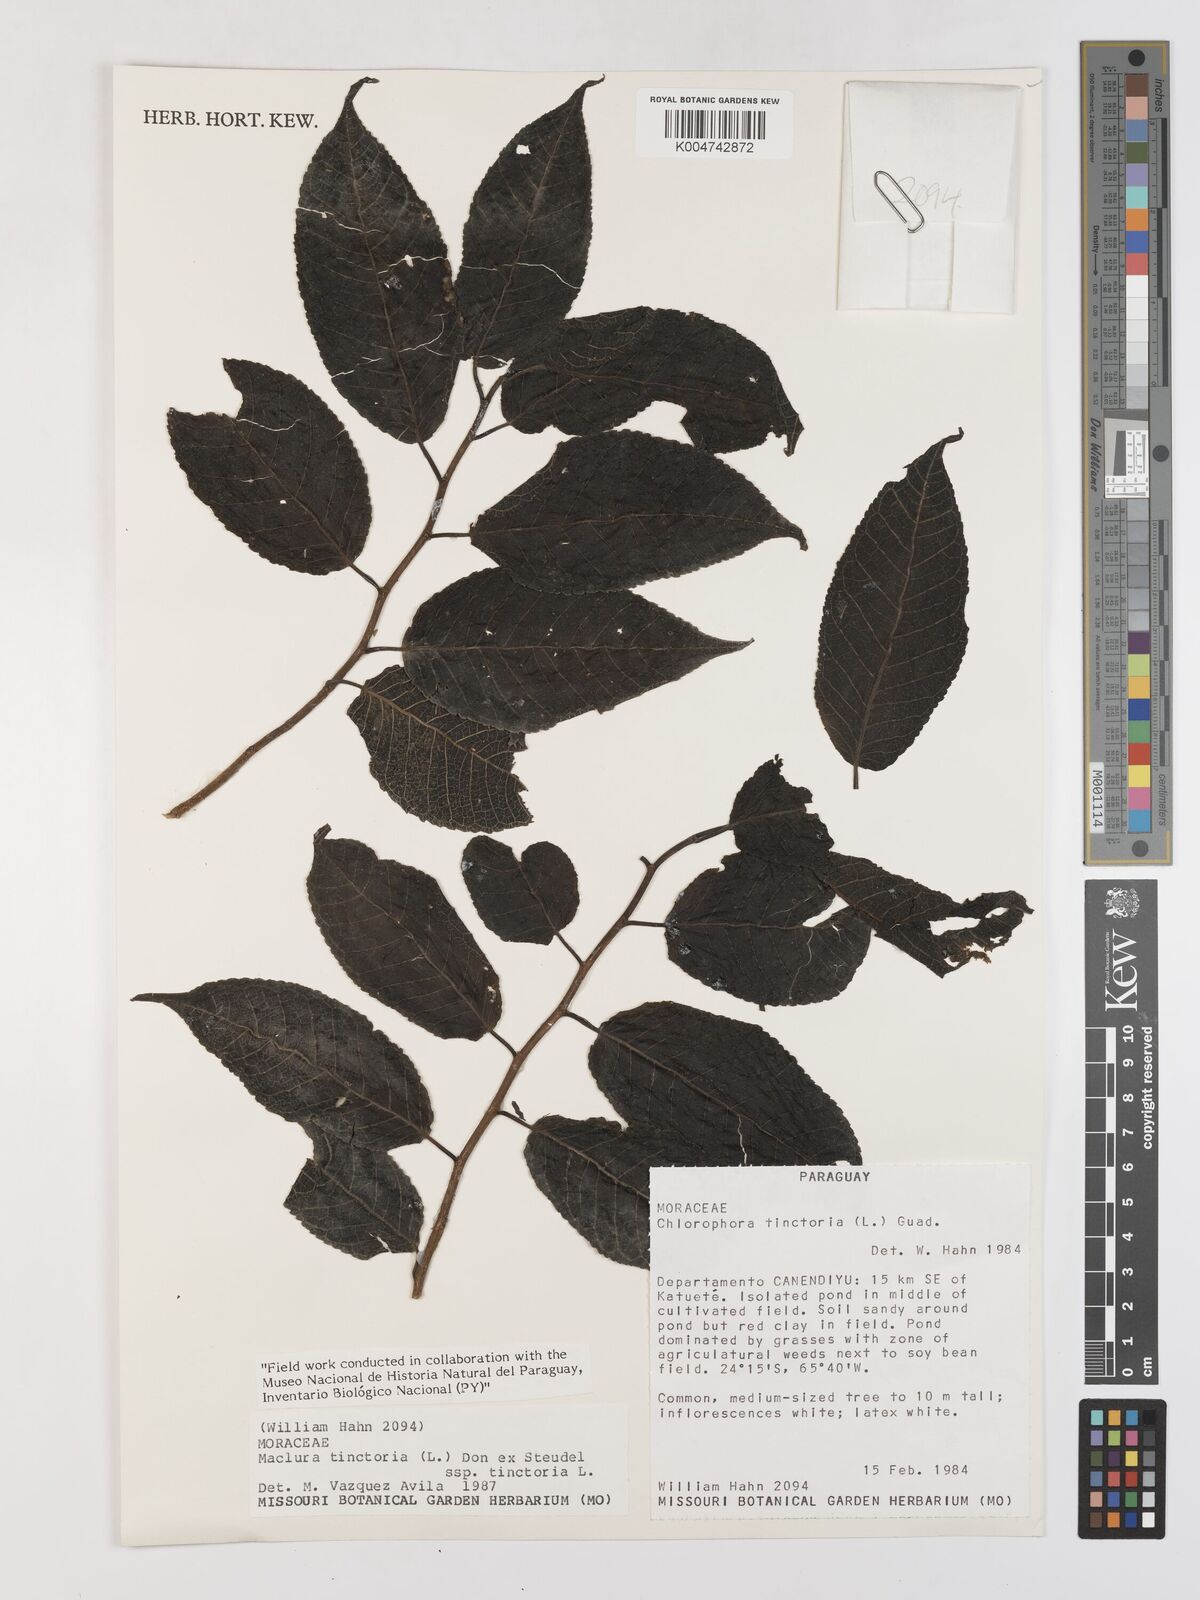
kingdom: Plantae
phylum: Tracheophyta
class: Magnoliopsida
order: Rosales
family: Moraceae
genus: Maclura
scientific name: Maclura tinctoria
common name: Old fustic
